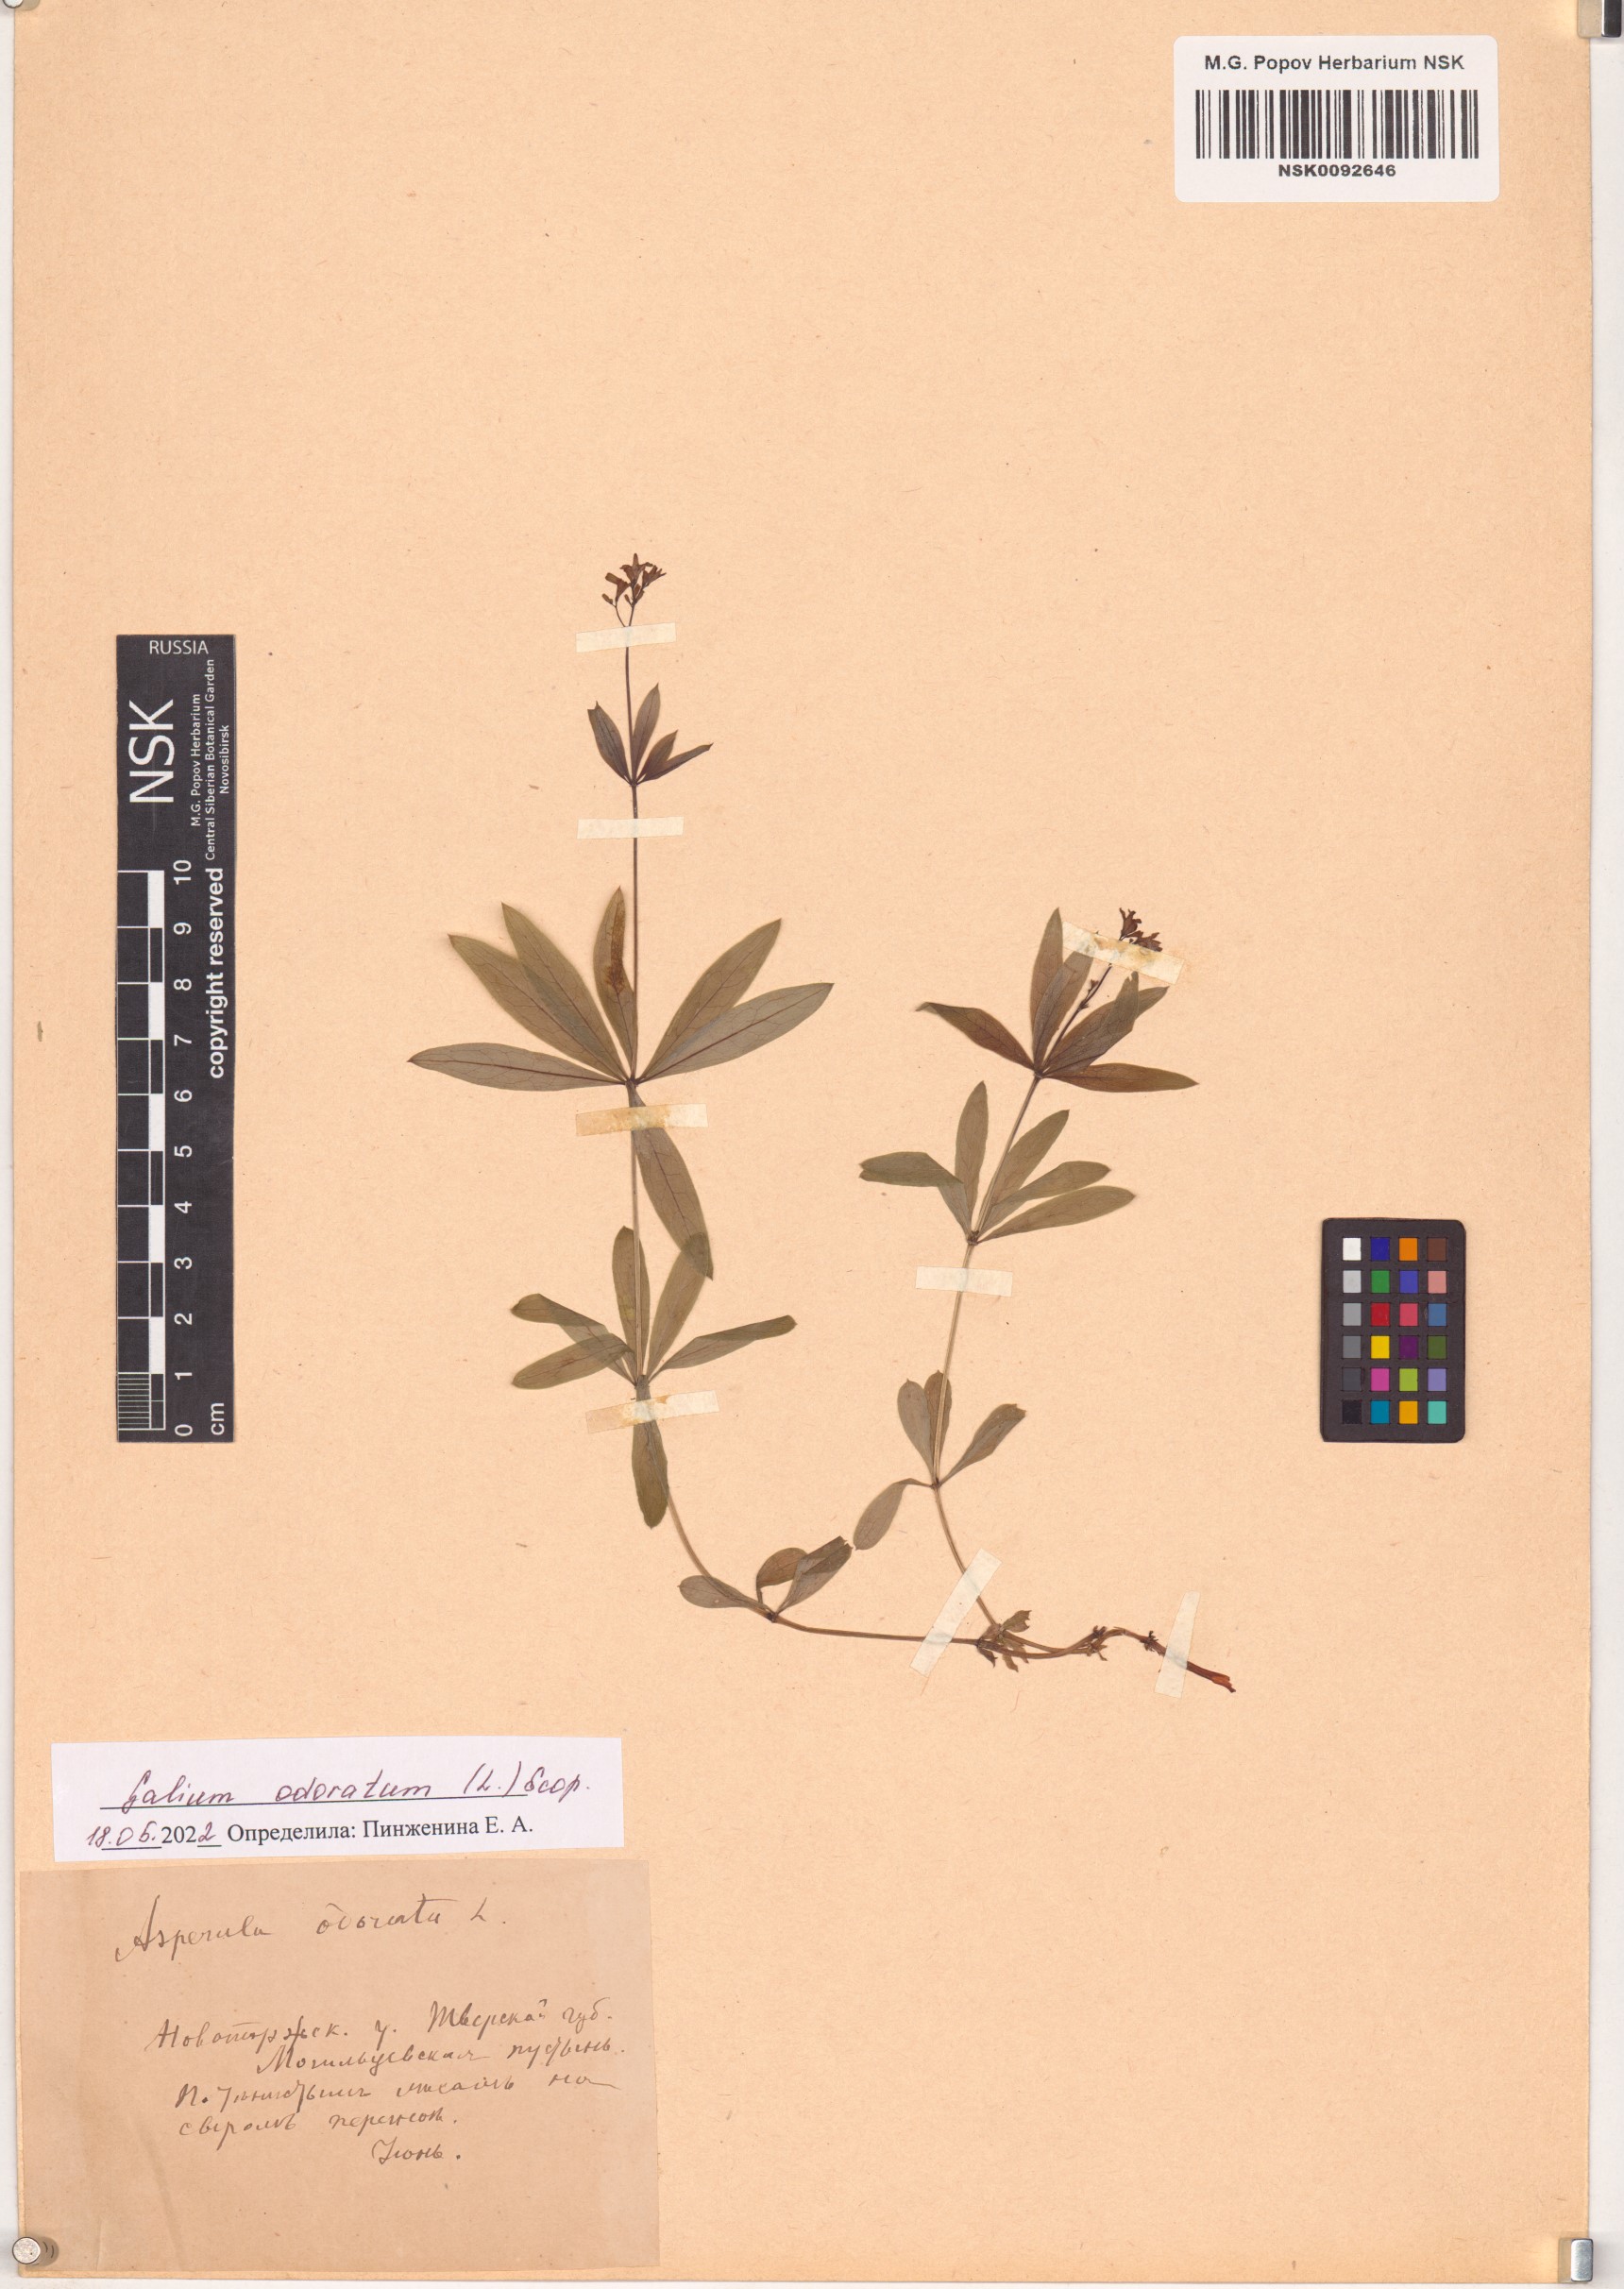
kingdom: Plantae
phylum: Tracheophyta
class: Magnoliopsida
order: Gentianales
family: Rubiaceae
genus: Galium
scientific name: Galium odoratum
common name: Sweet woodruff
